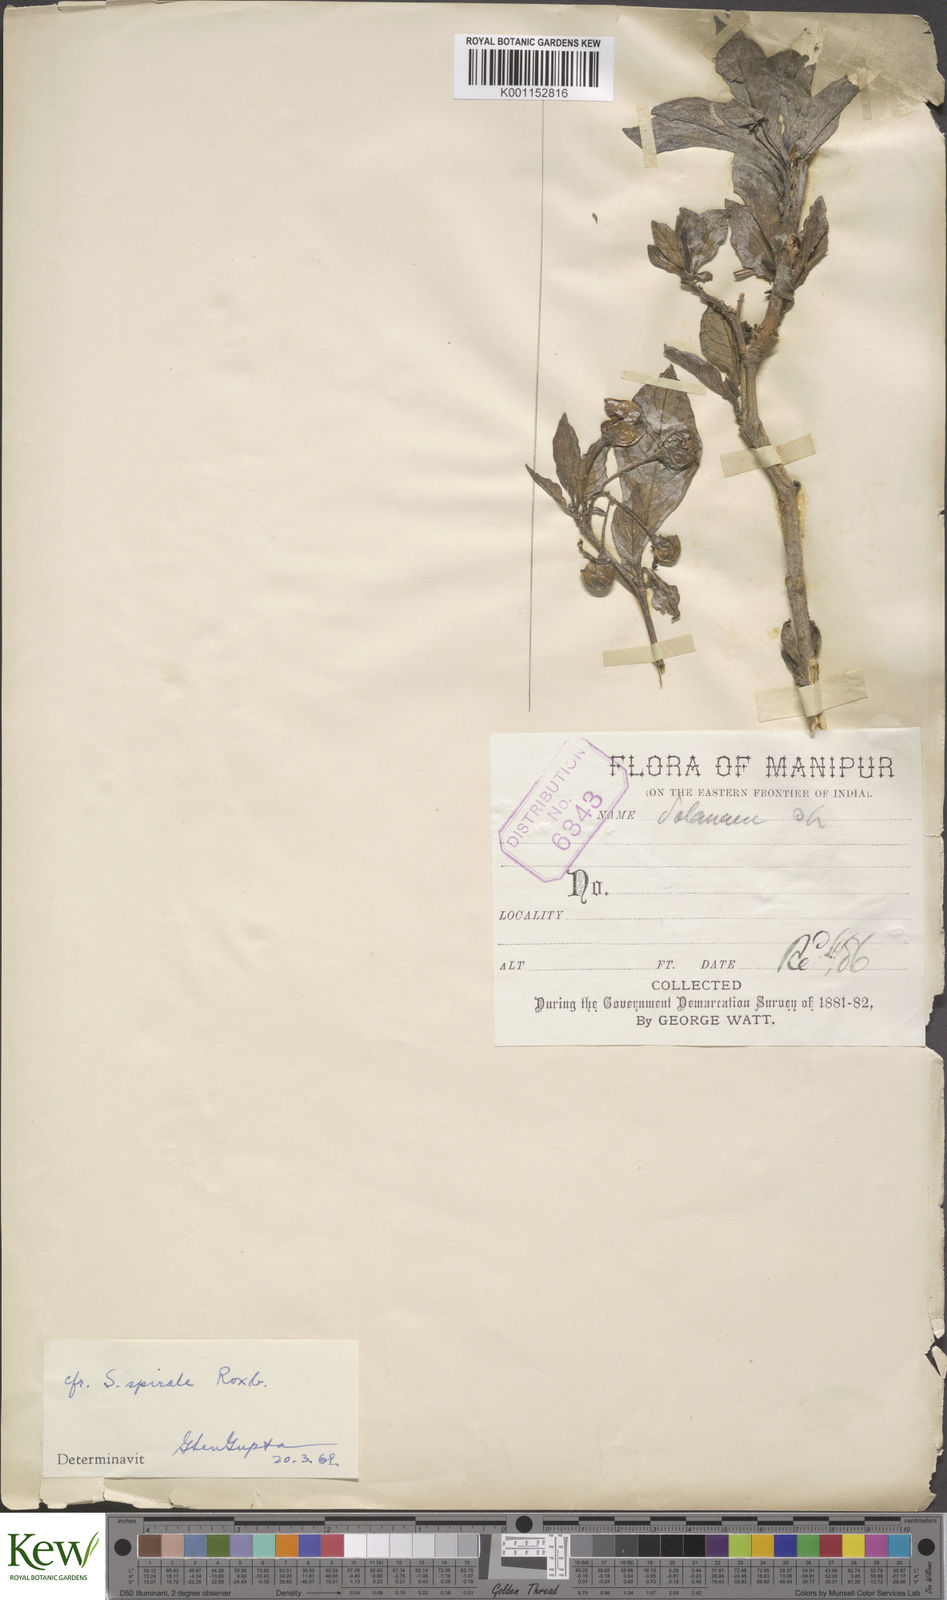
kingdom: Plantae
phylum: Tracheophyta
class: Magnoliopsida
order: Solanales
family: Solanaceae
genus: Solanum
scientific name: Solanum spirale
